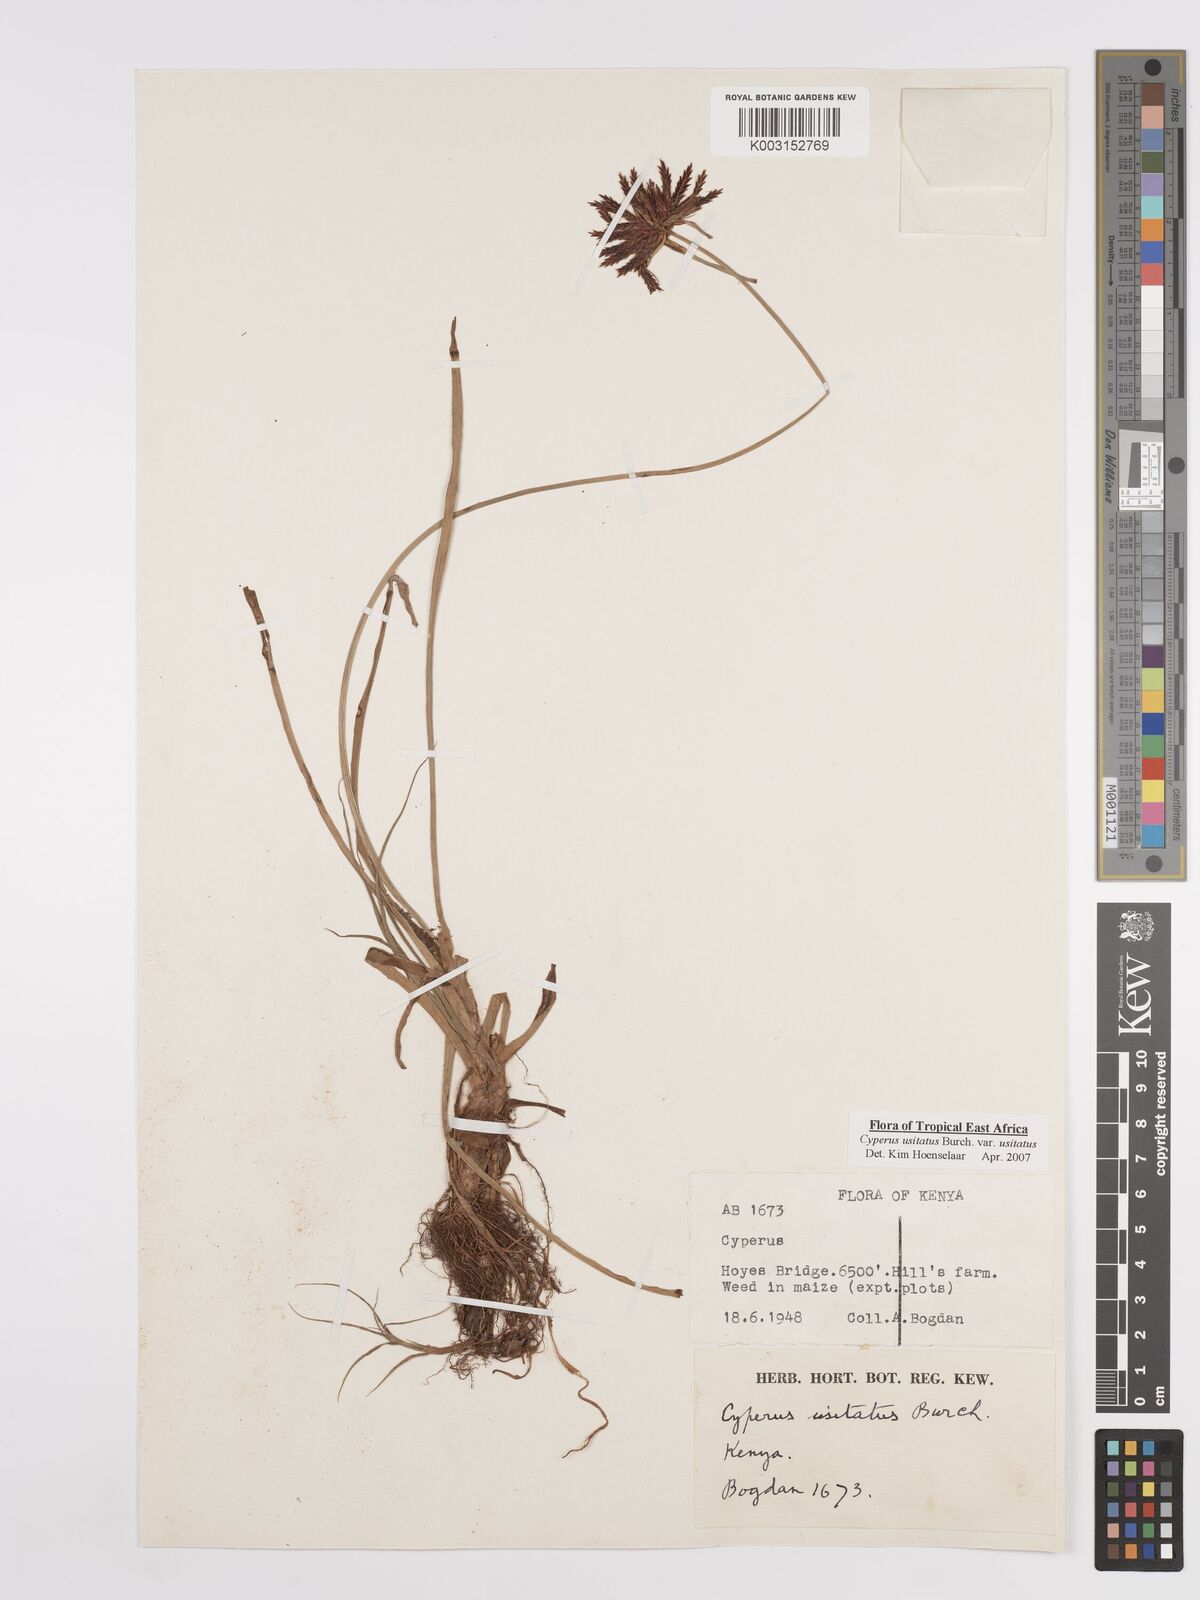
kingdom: Plantae
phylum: Tracheophyta
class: Liliopsida
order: Poales
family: Cyperaceae
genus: Cyperus
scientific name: Cyperus usitatus
